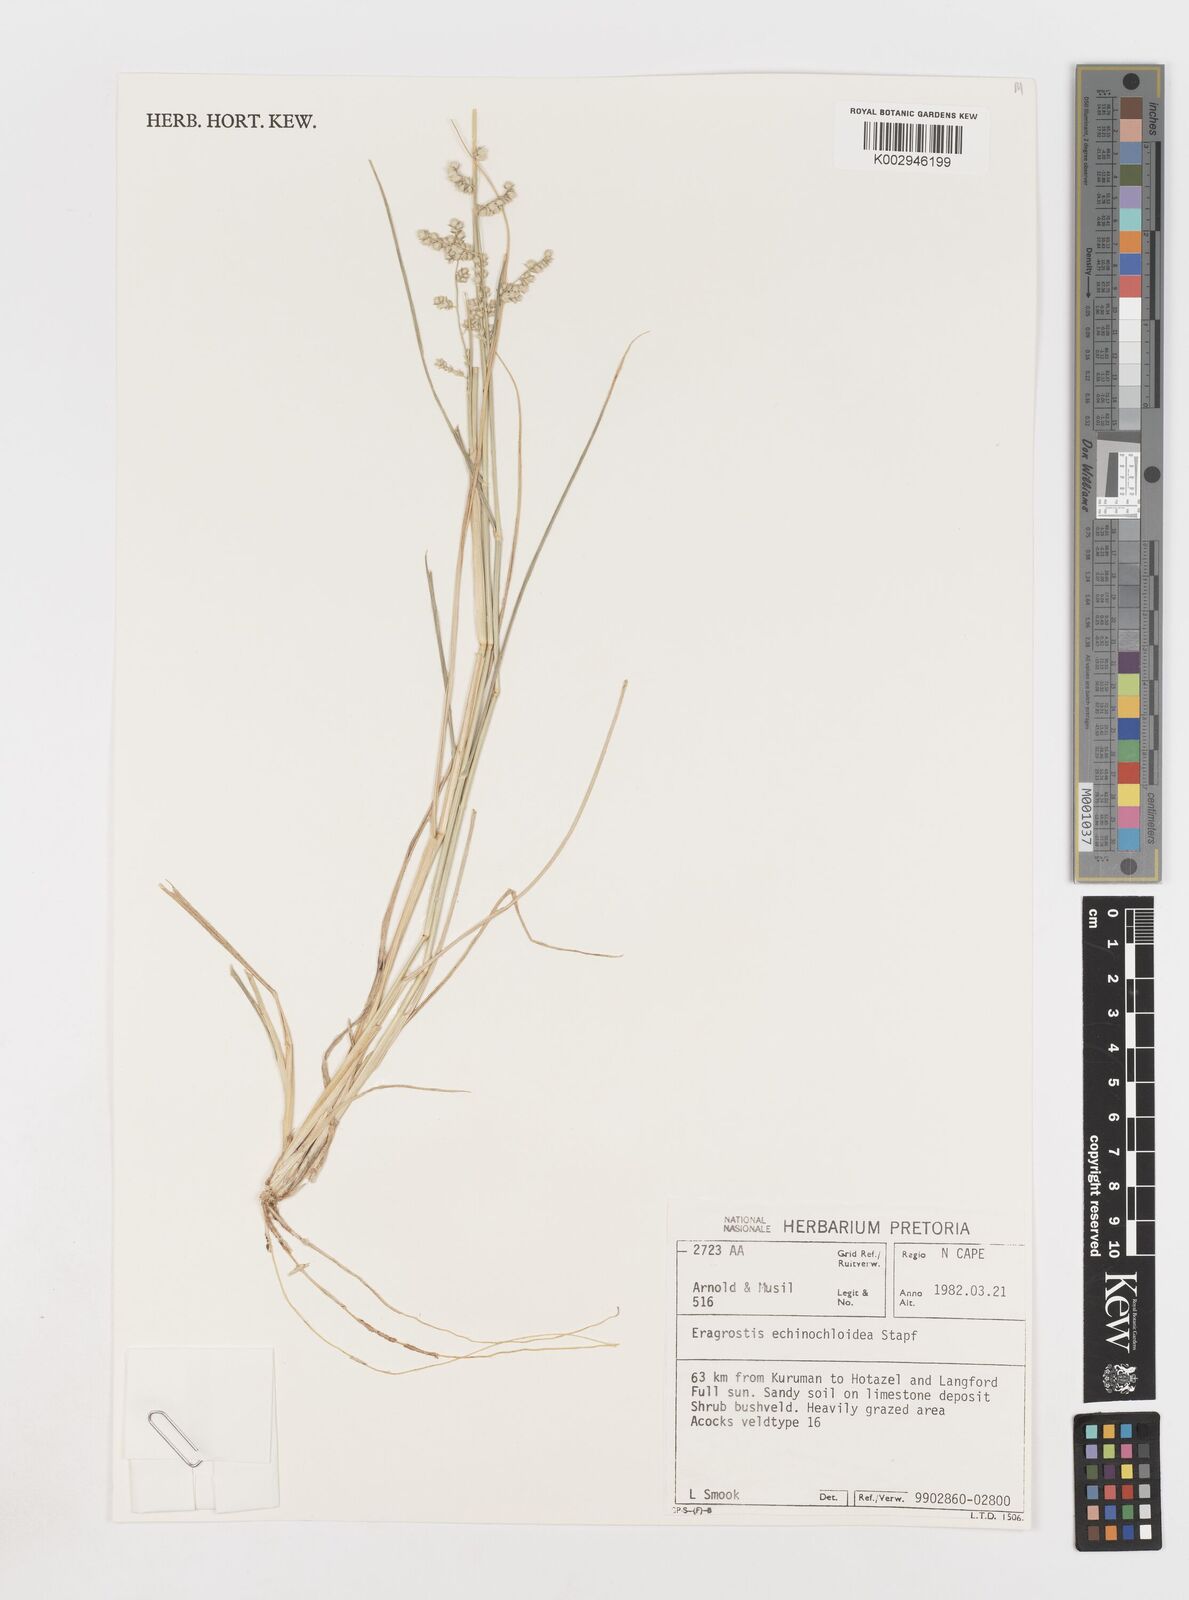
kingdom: Plantae
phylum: Tracheophyta
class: Liliopsida
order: Poales
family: Poaceae
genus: Eragrostis
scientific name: Eragrostis echinochloidea
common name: African lovegrass
